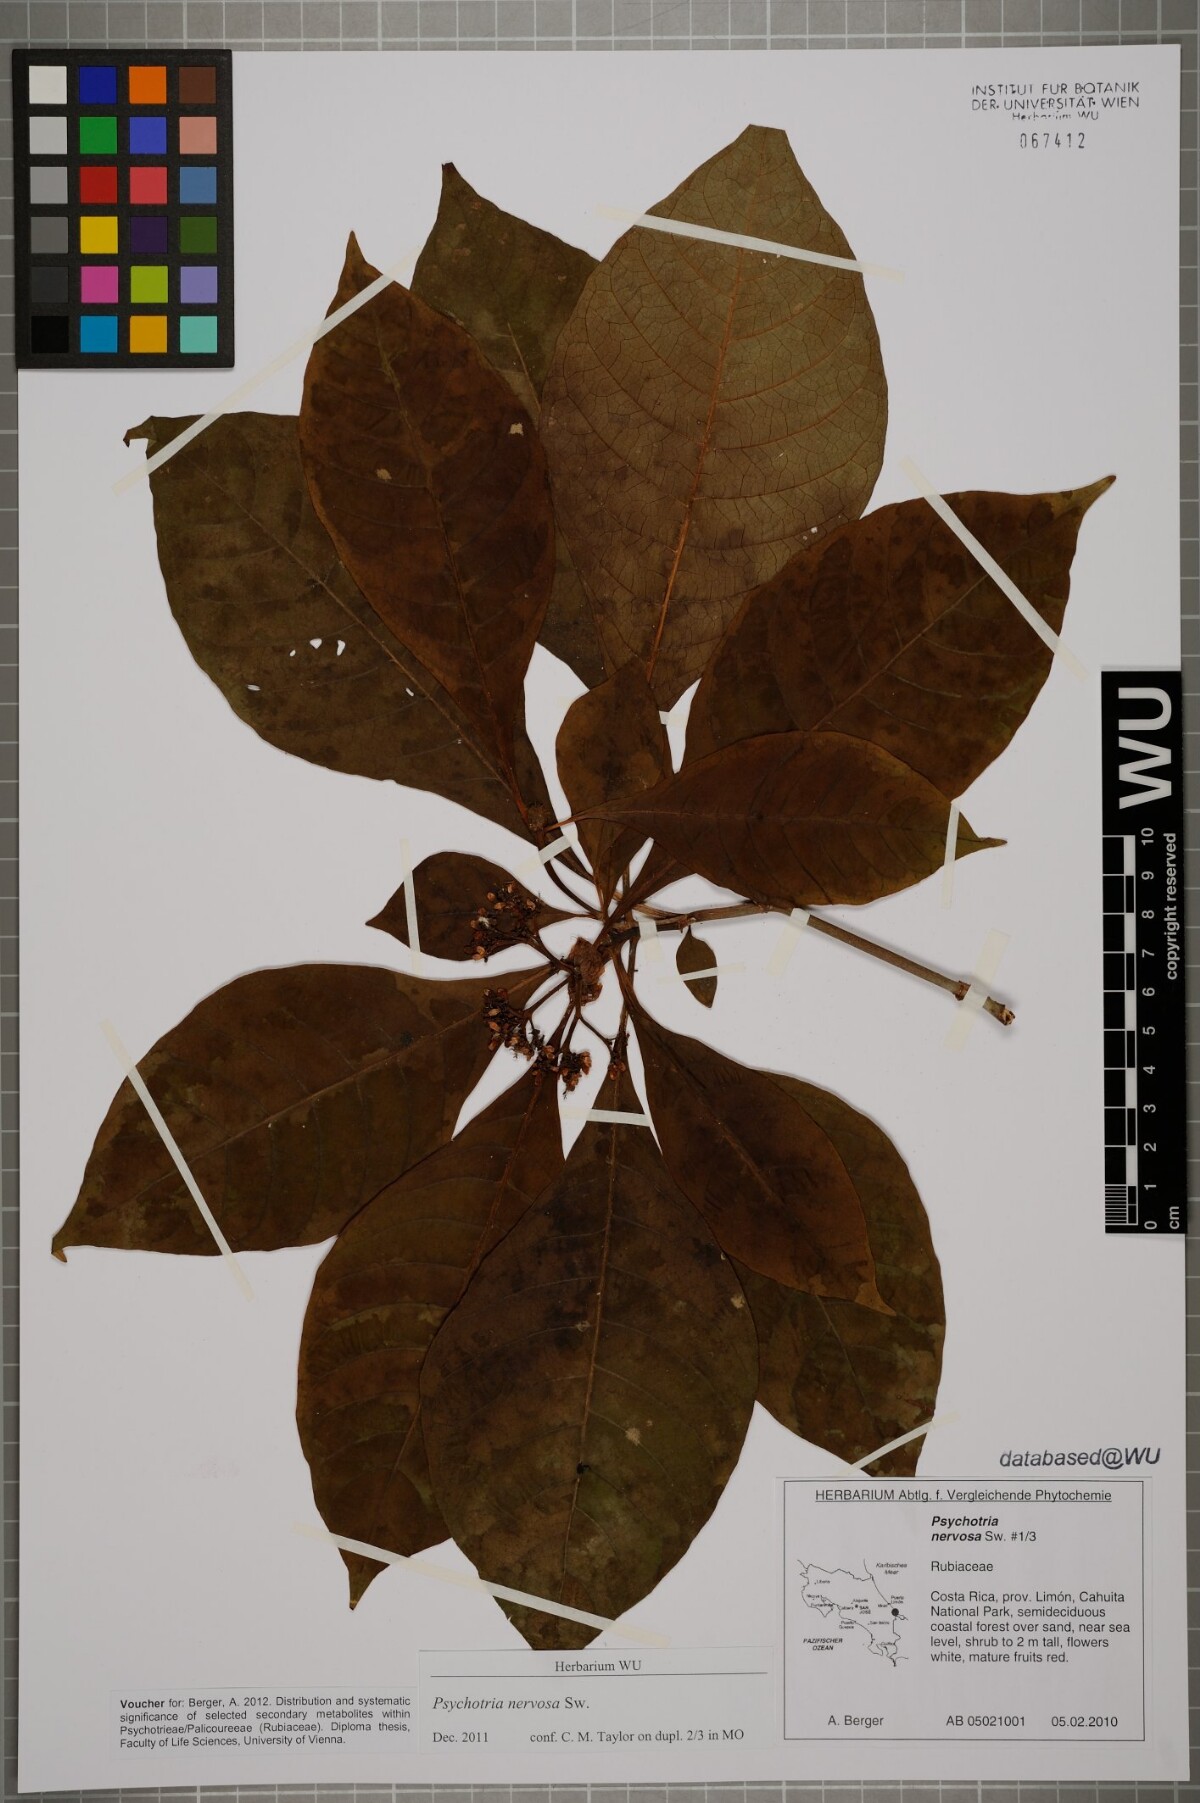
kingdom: Plantae
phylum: Tracheophyta
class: Magnoliopsida
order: Gentianales
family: Rubiaceae
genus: Psychotria
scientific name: Psychotria nervosa
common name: Bastard cankerberry
